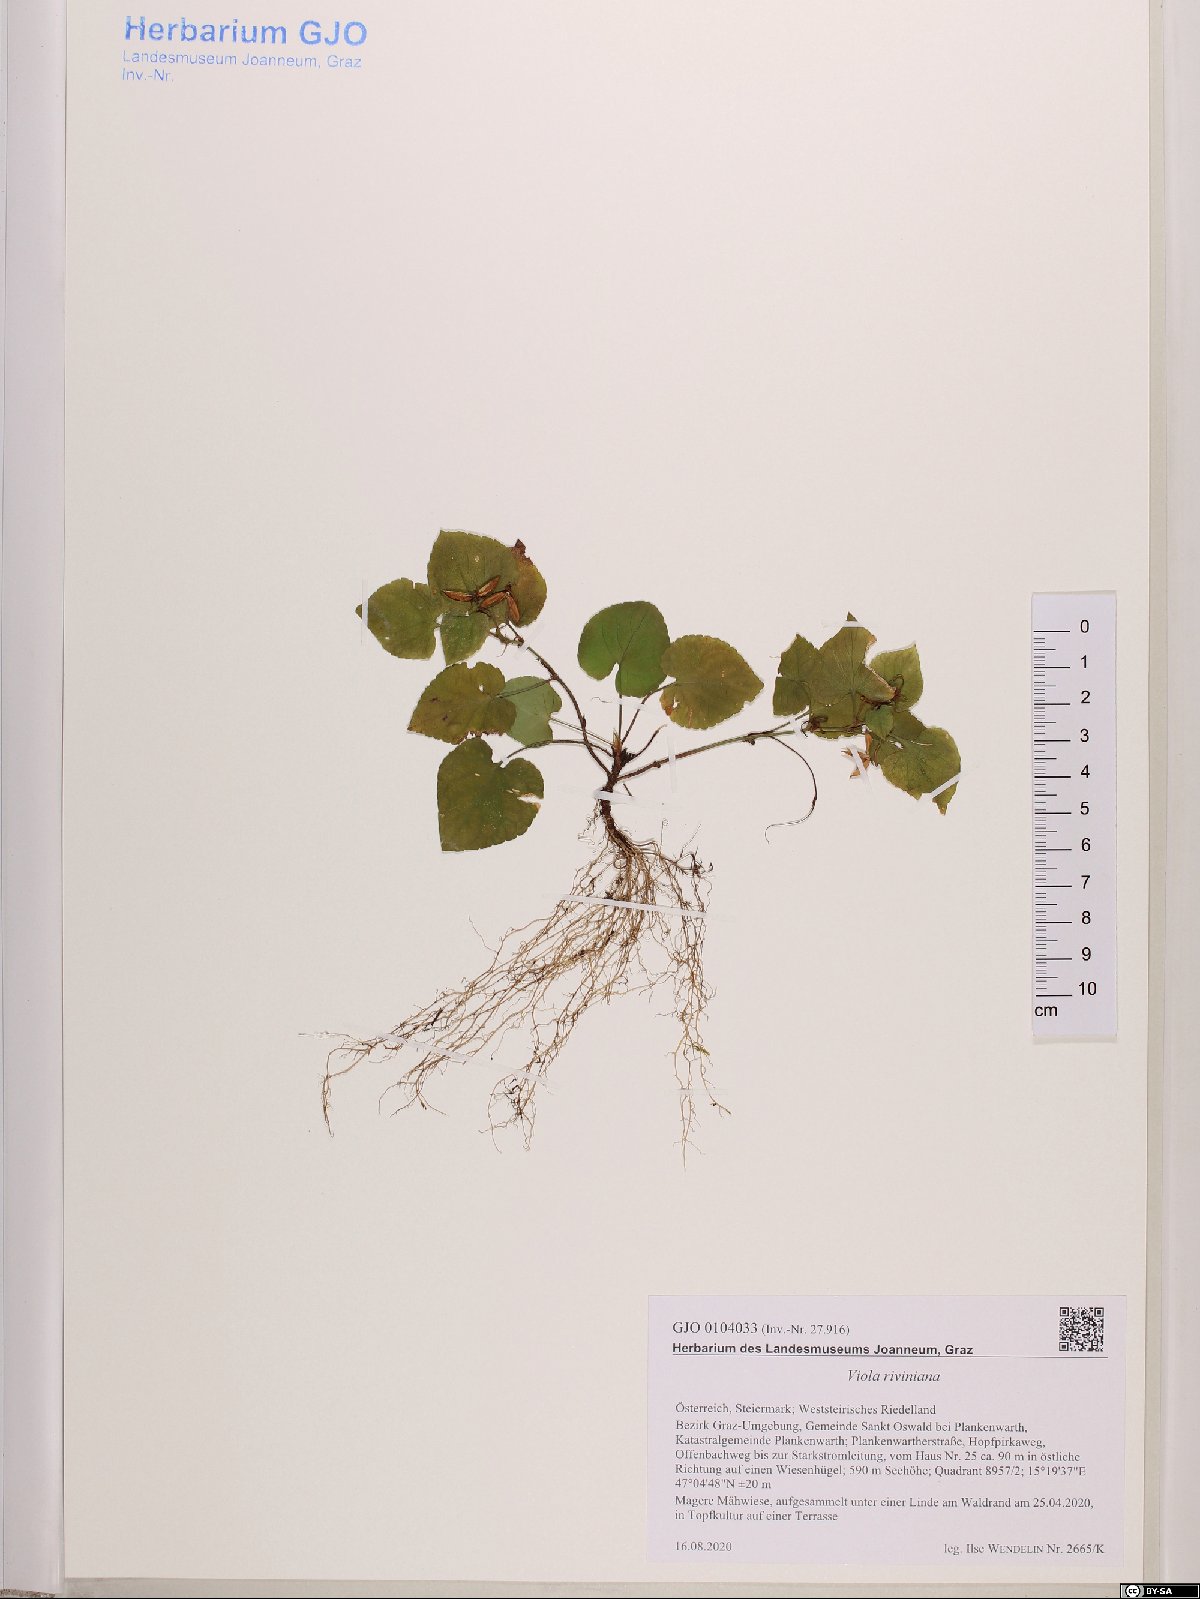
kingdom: Plantae
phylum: Tracheophyta
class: Magnoliopsida
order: Malpighiales
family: Violaceae
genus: Viola
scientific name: Viola riviniana
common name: Common dog-violet
